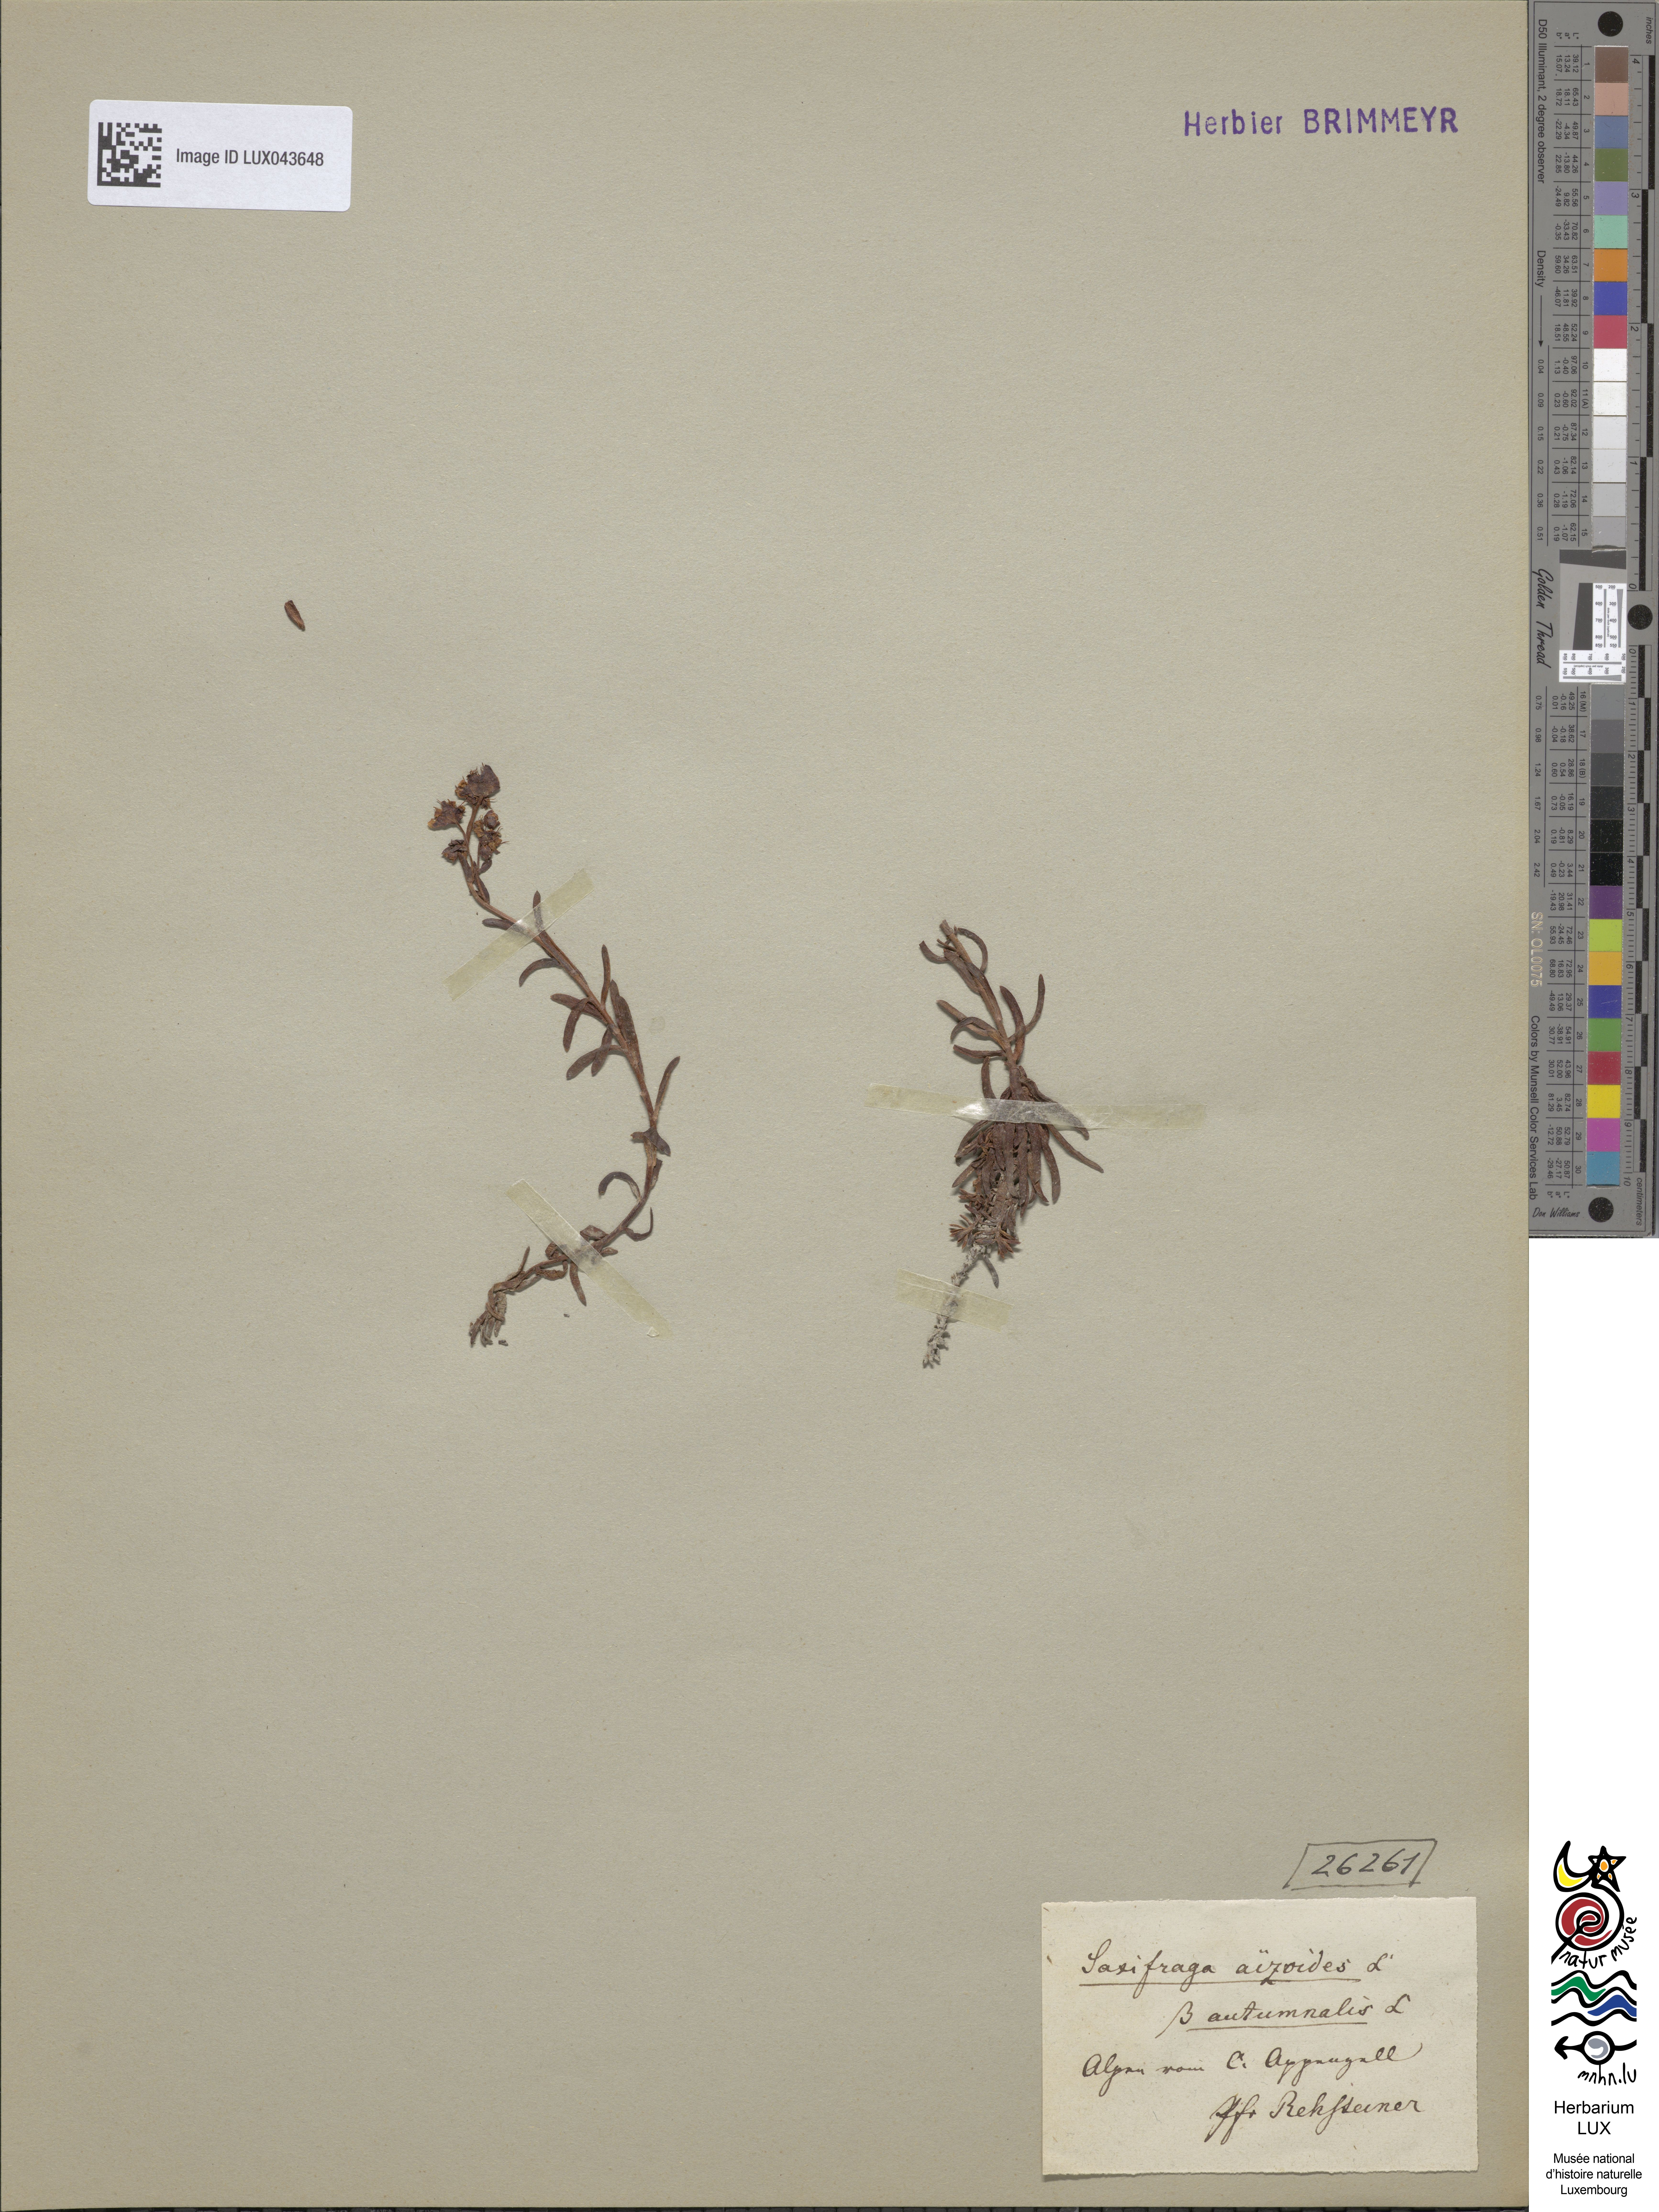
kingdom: Plantae
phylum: Tracheophyta
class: Magnoliopsida
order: Saxifragales
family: Saxifragaceae
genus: Saxifraga
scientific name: Saxifraga aizoides
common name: Yellow mountain saxifrage
